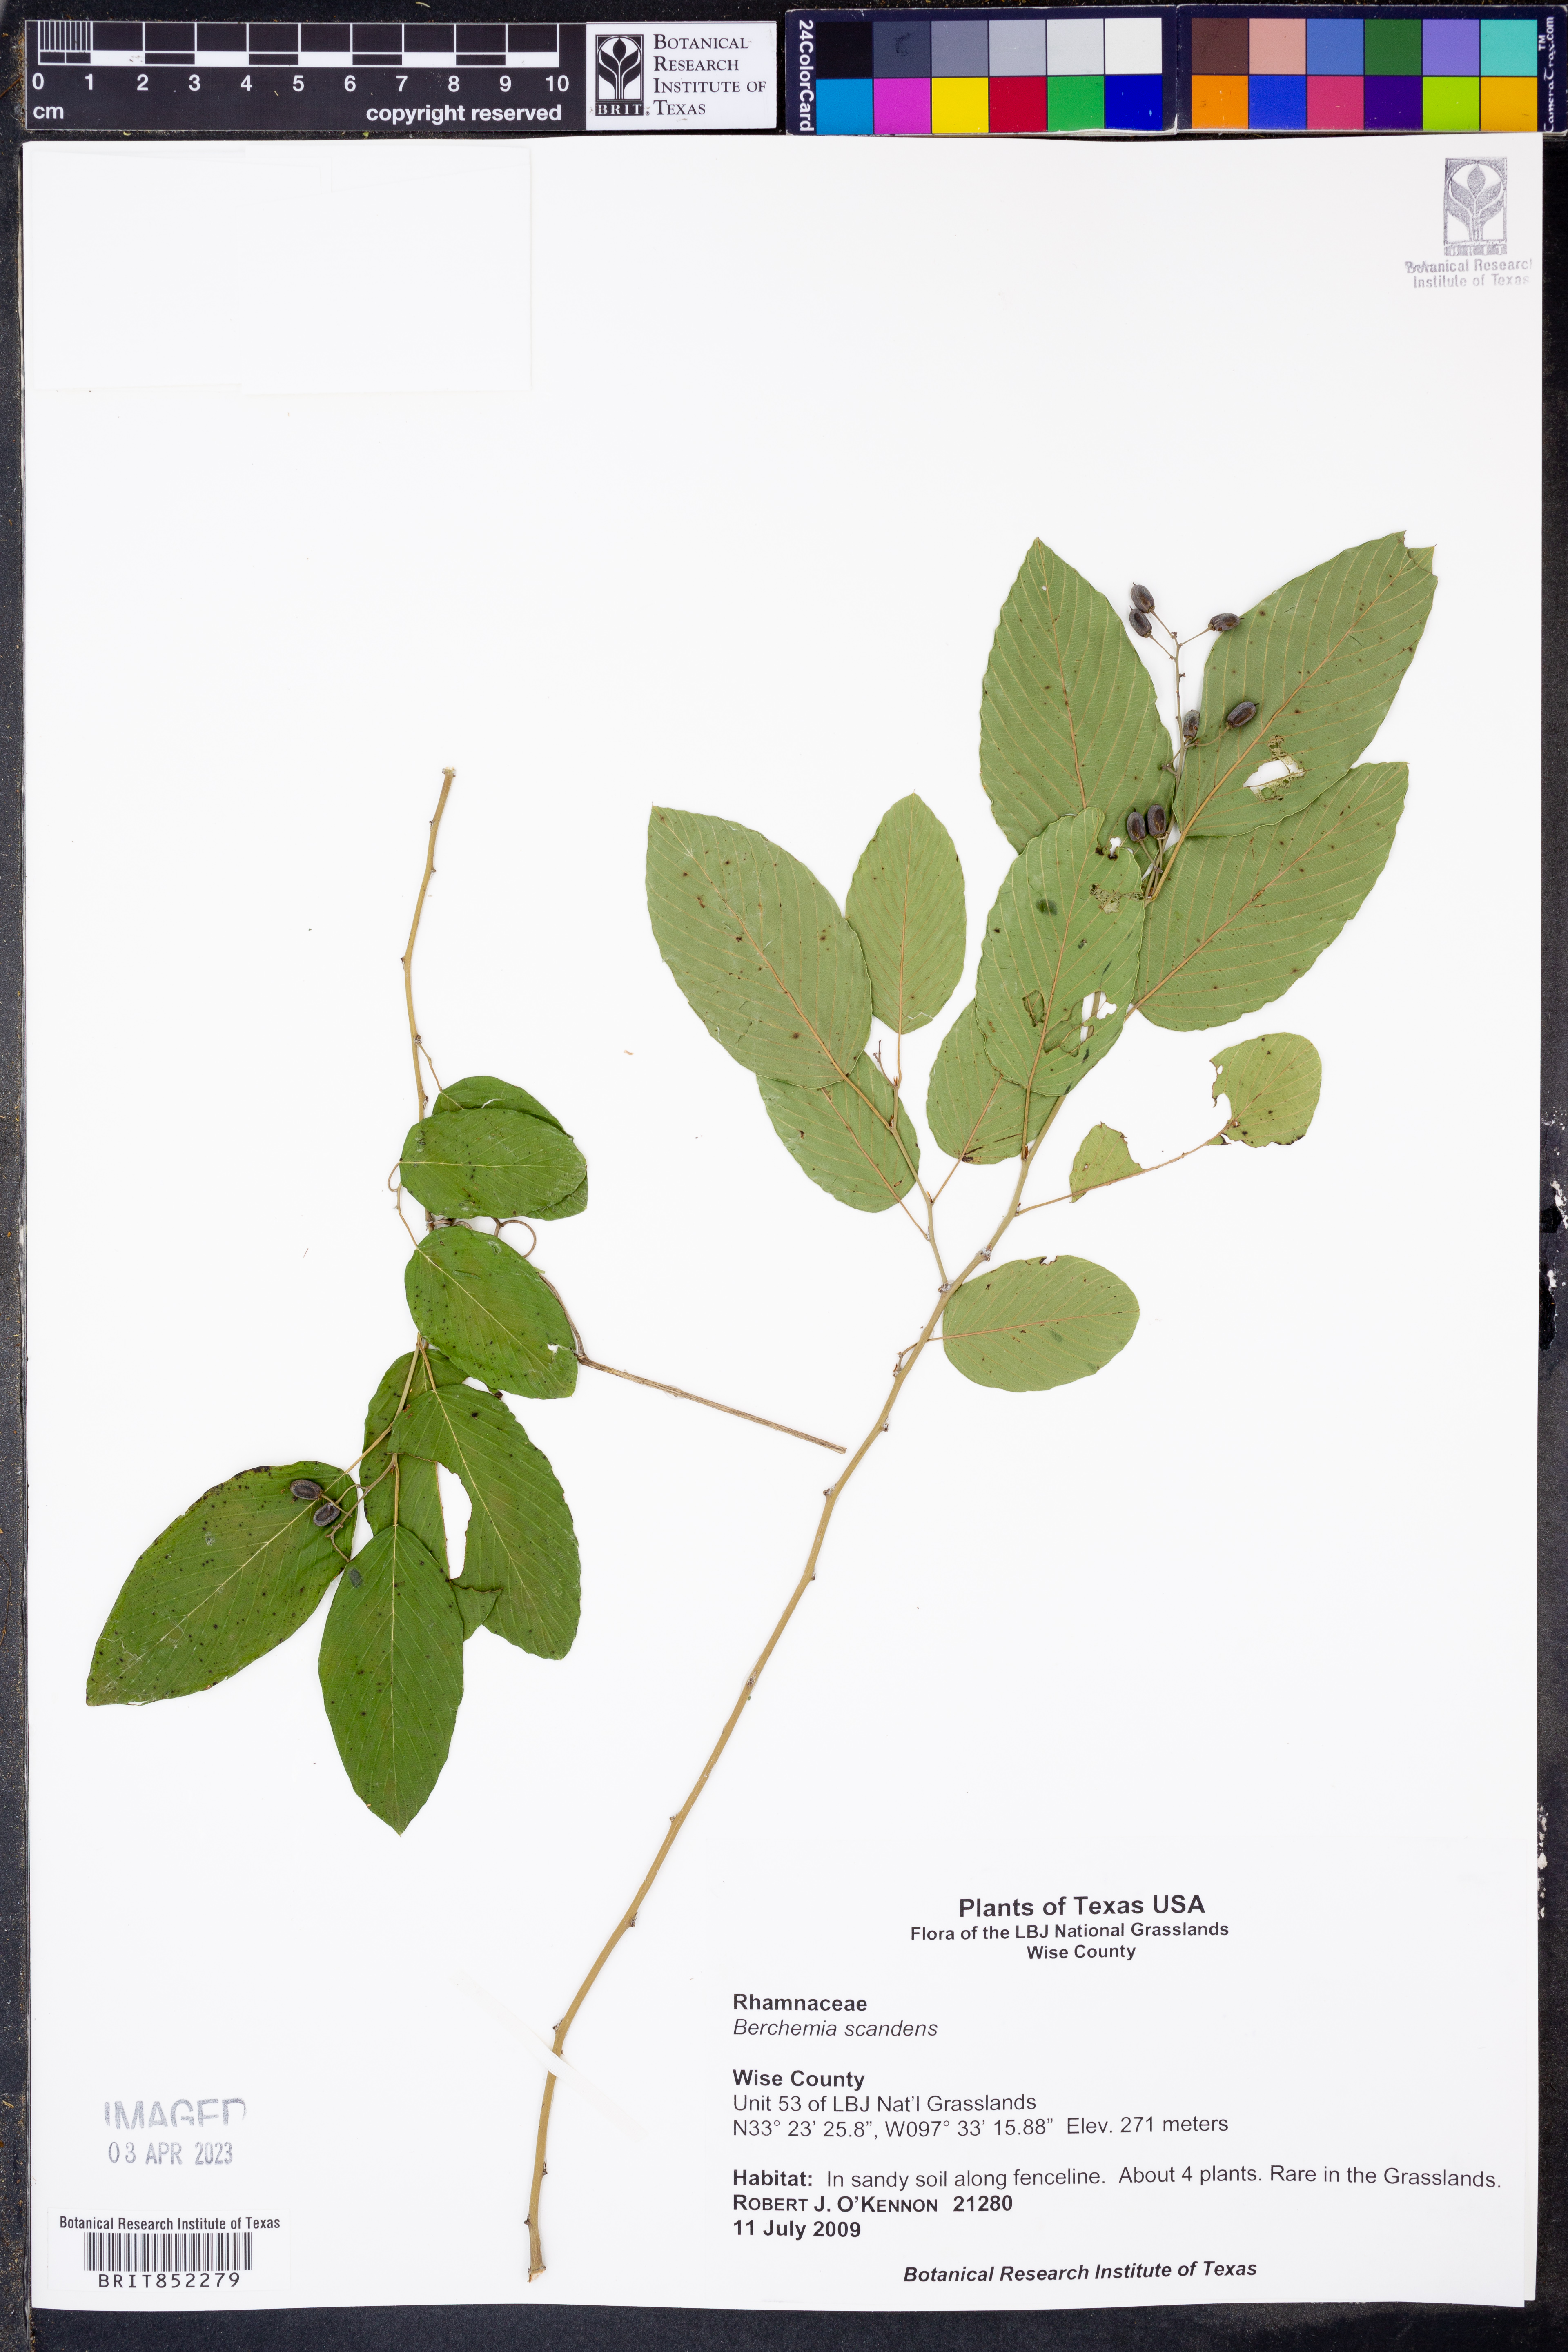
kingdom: Plantae
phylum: Tracheophyta
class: Magnoliopsida
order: Rosales
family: Rhamnaceae
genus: Berchemia
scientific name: Berchemia scandens
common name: Supplejack
